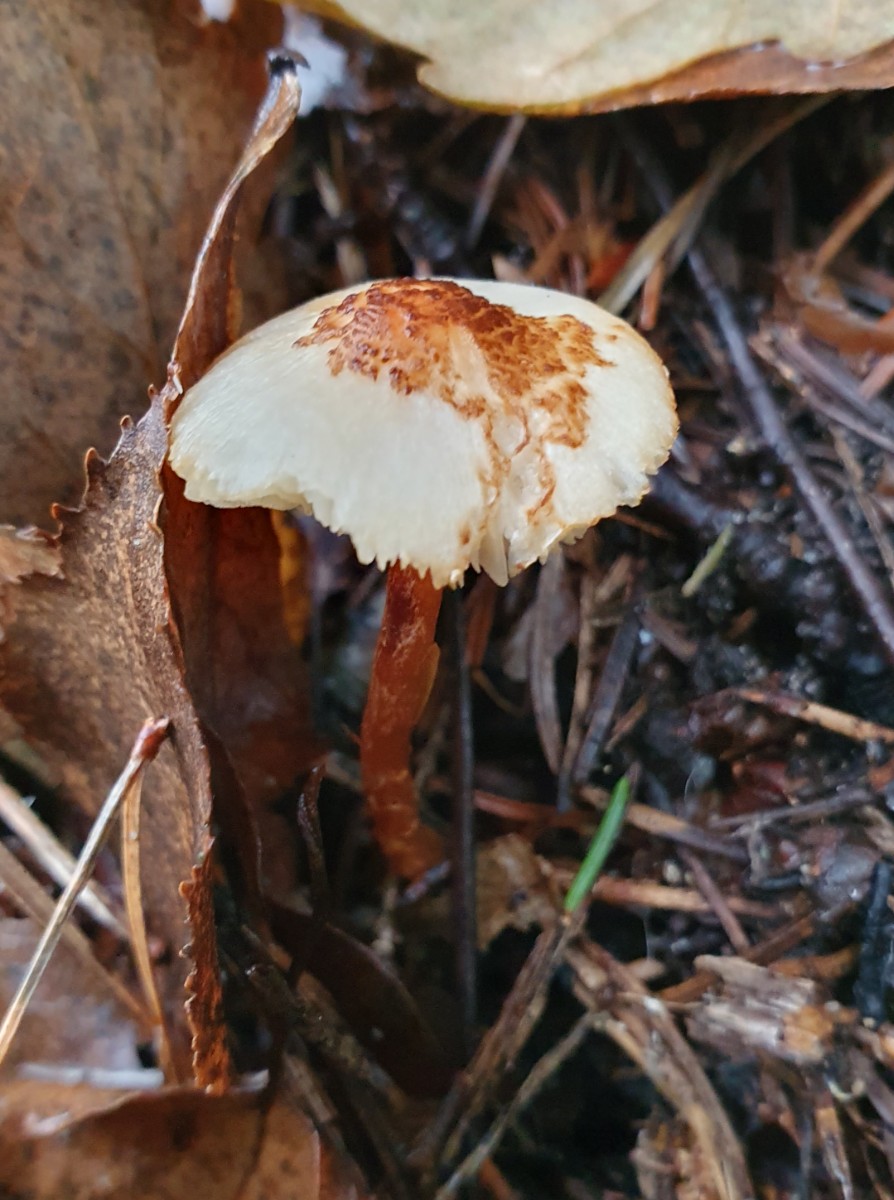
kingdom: Fungi
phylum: Basidiomycota
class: Agaricomycetes
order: Agaricales
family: Agaricaceae
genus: Lepiota
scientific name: Lepiota castanea
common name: kastaniebrun parasolhat
